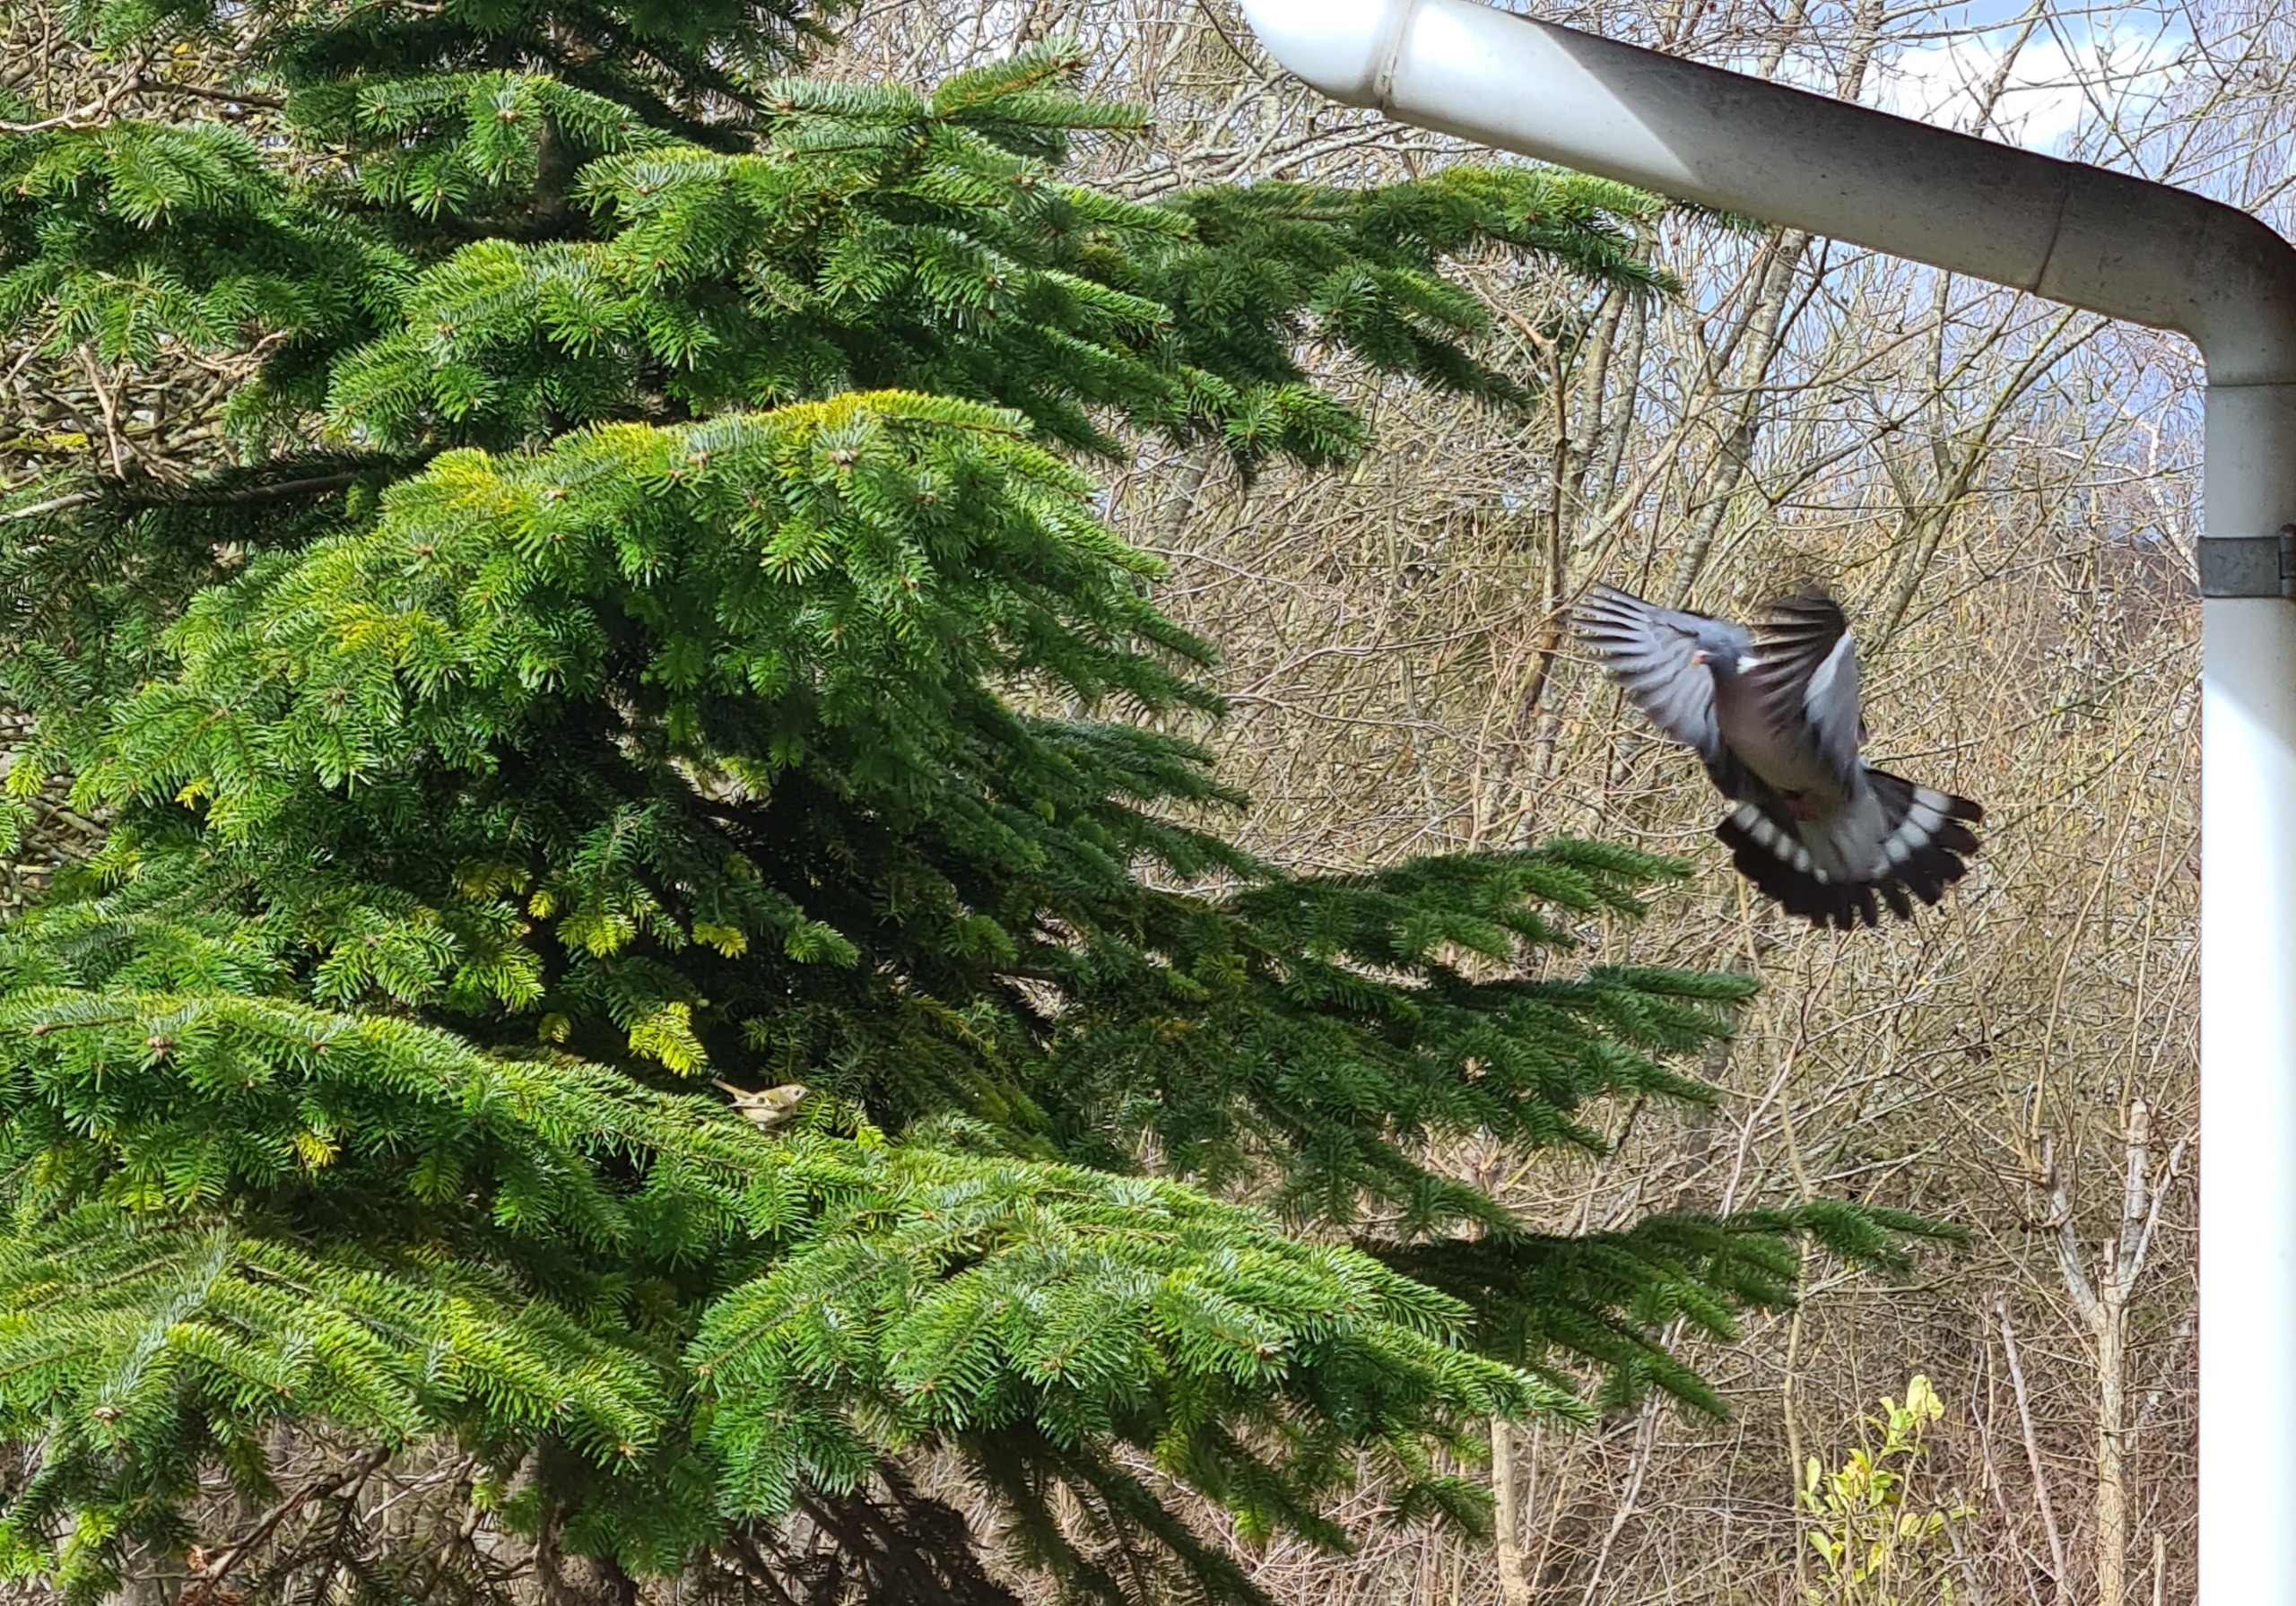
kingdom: Animalia
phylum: Chordata
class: Aves
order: Passeriformes
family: Regulidae
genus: Regulus
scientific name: Regulus regulus
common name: Fuglekonge
